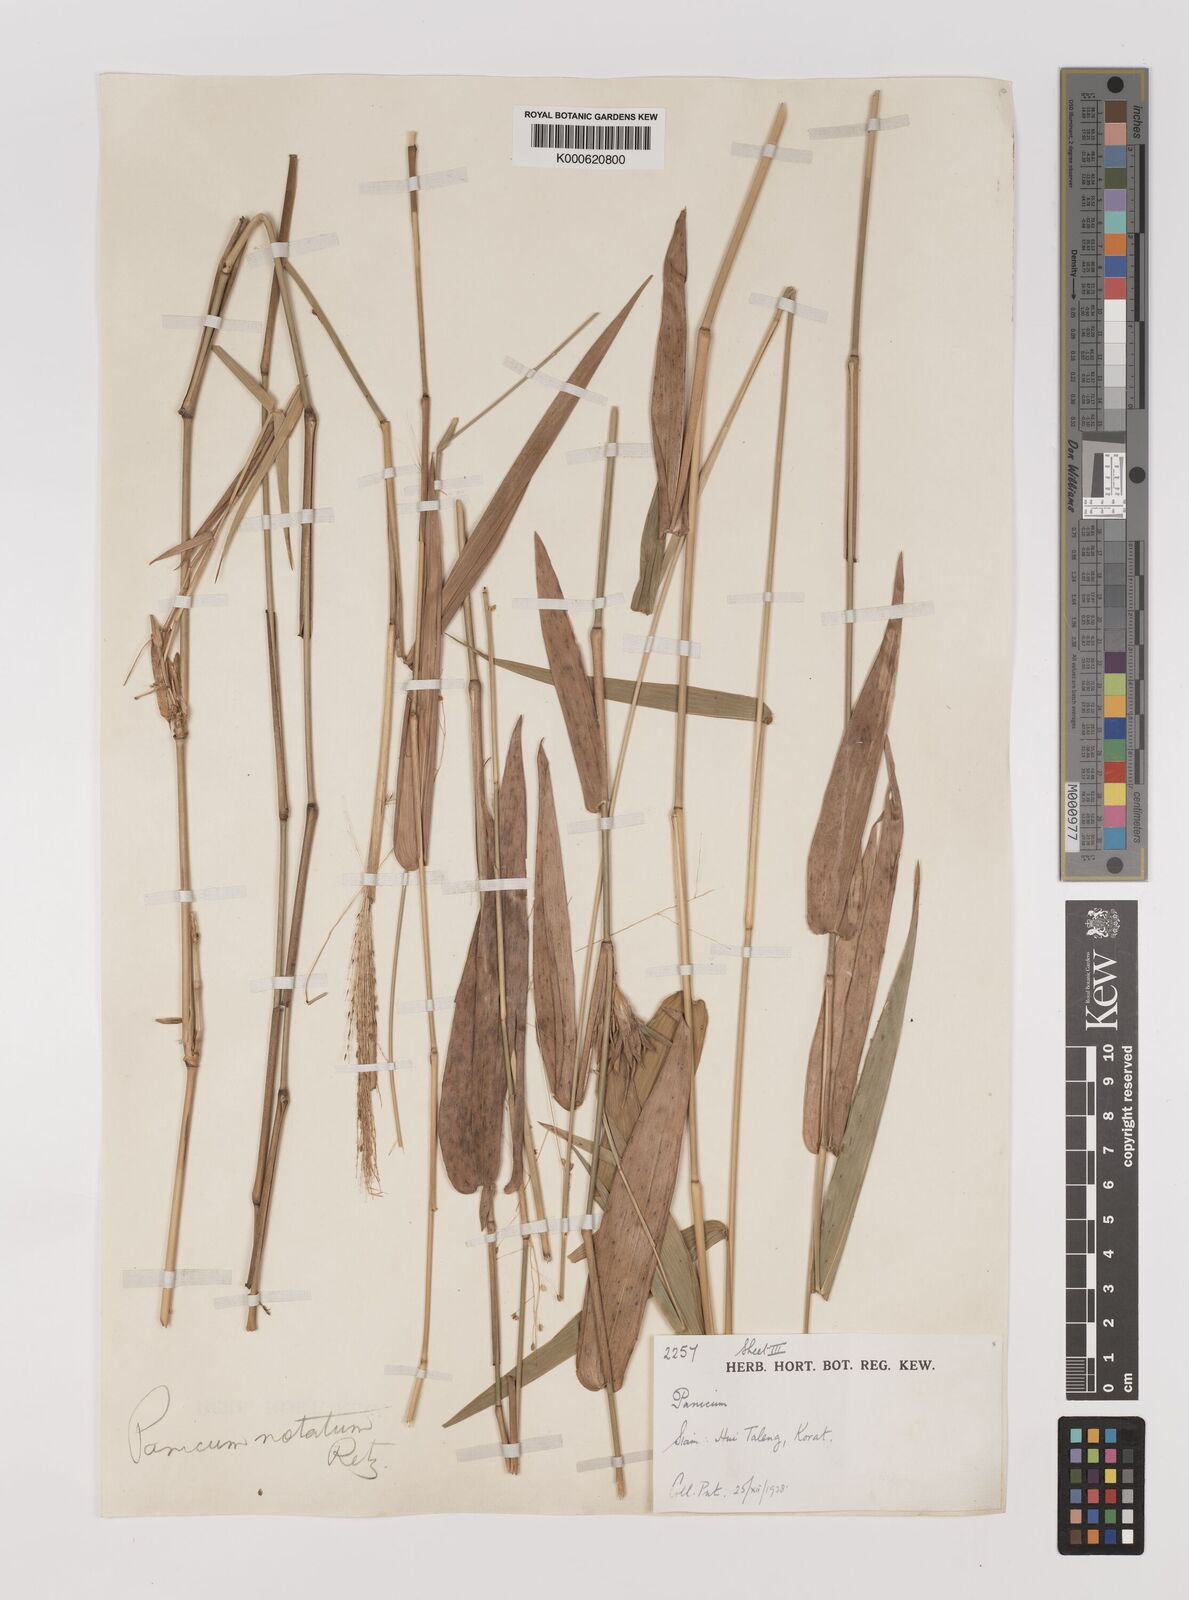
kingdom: Plantae
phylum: Tracheophyta
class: Liliopsida
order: Poales
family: Poaceae
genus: Panicum
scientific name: Panicum notatum
